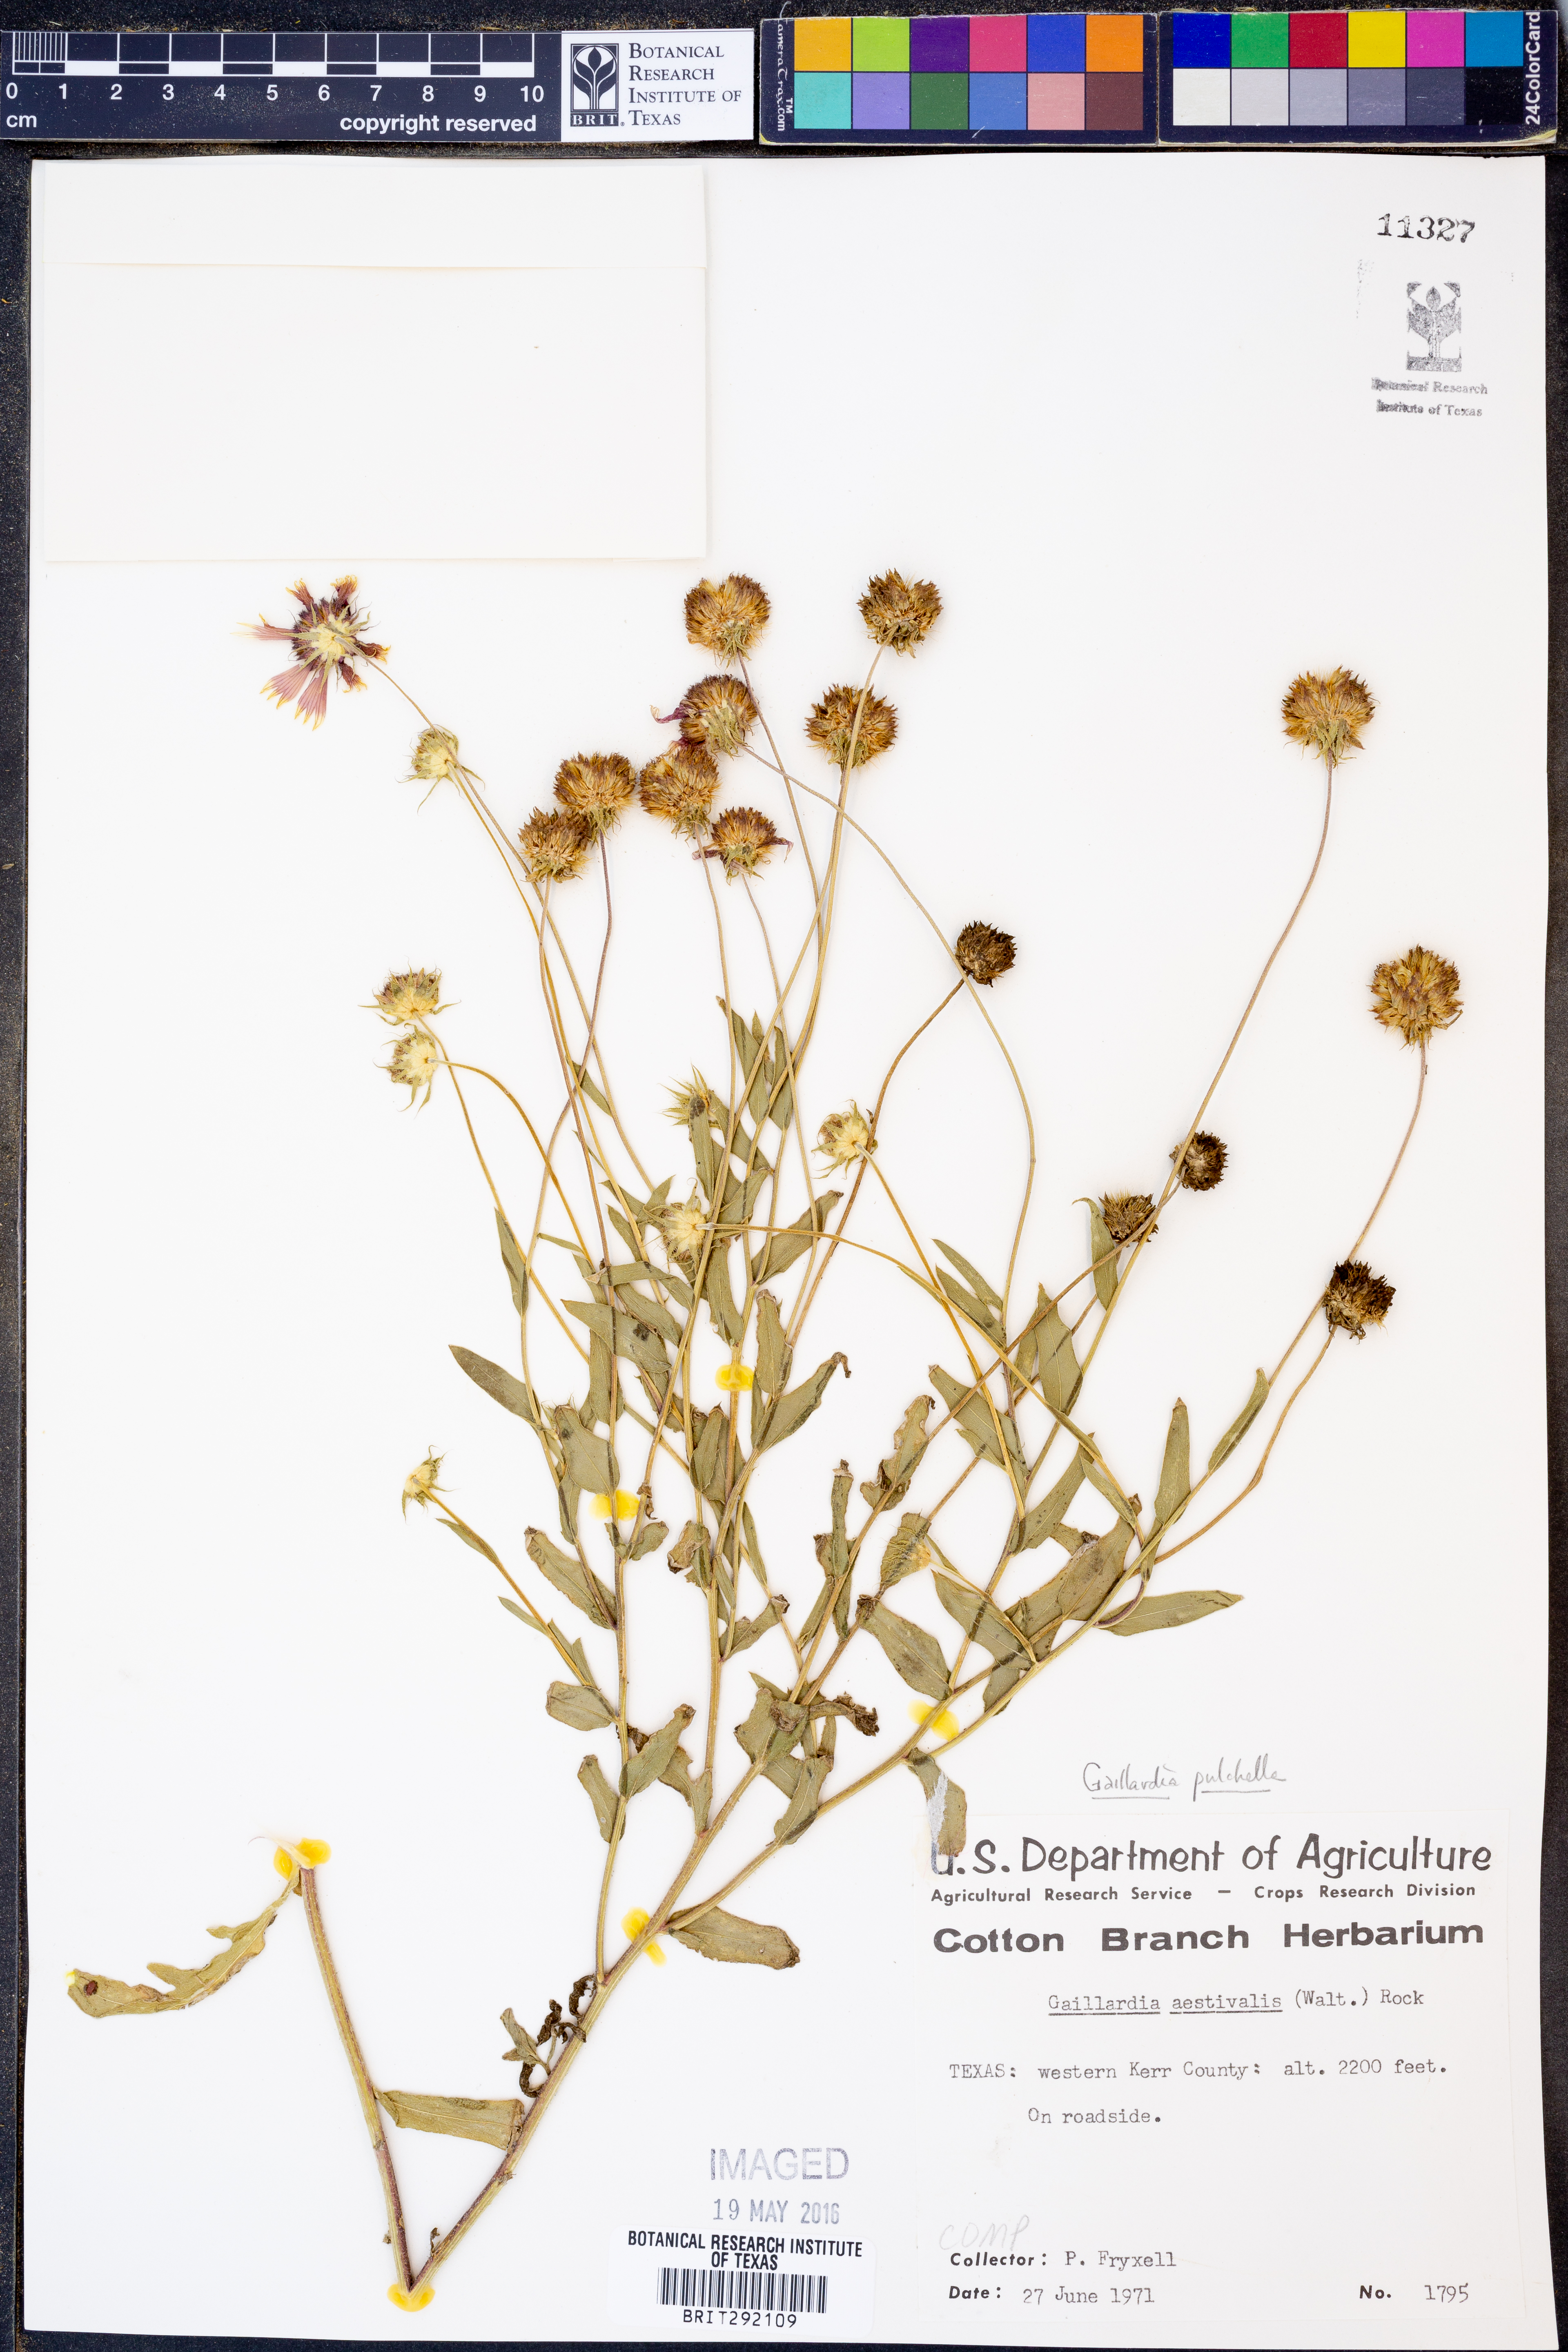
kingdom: Plantae
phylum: Tracheophyta
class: Magnoliopsida
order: Asterales
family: Asteraceae
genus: Gaillardia
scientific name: Gaillardia pulchella
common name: Firewheel
